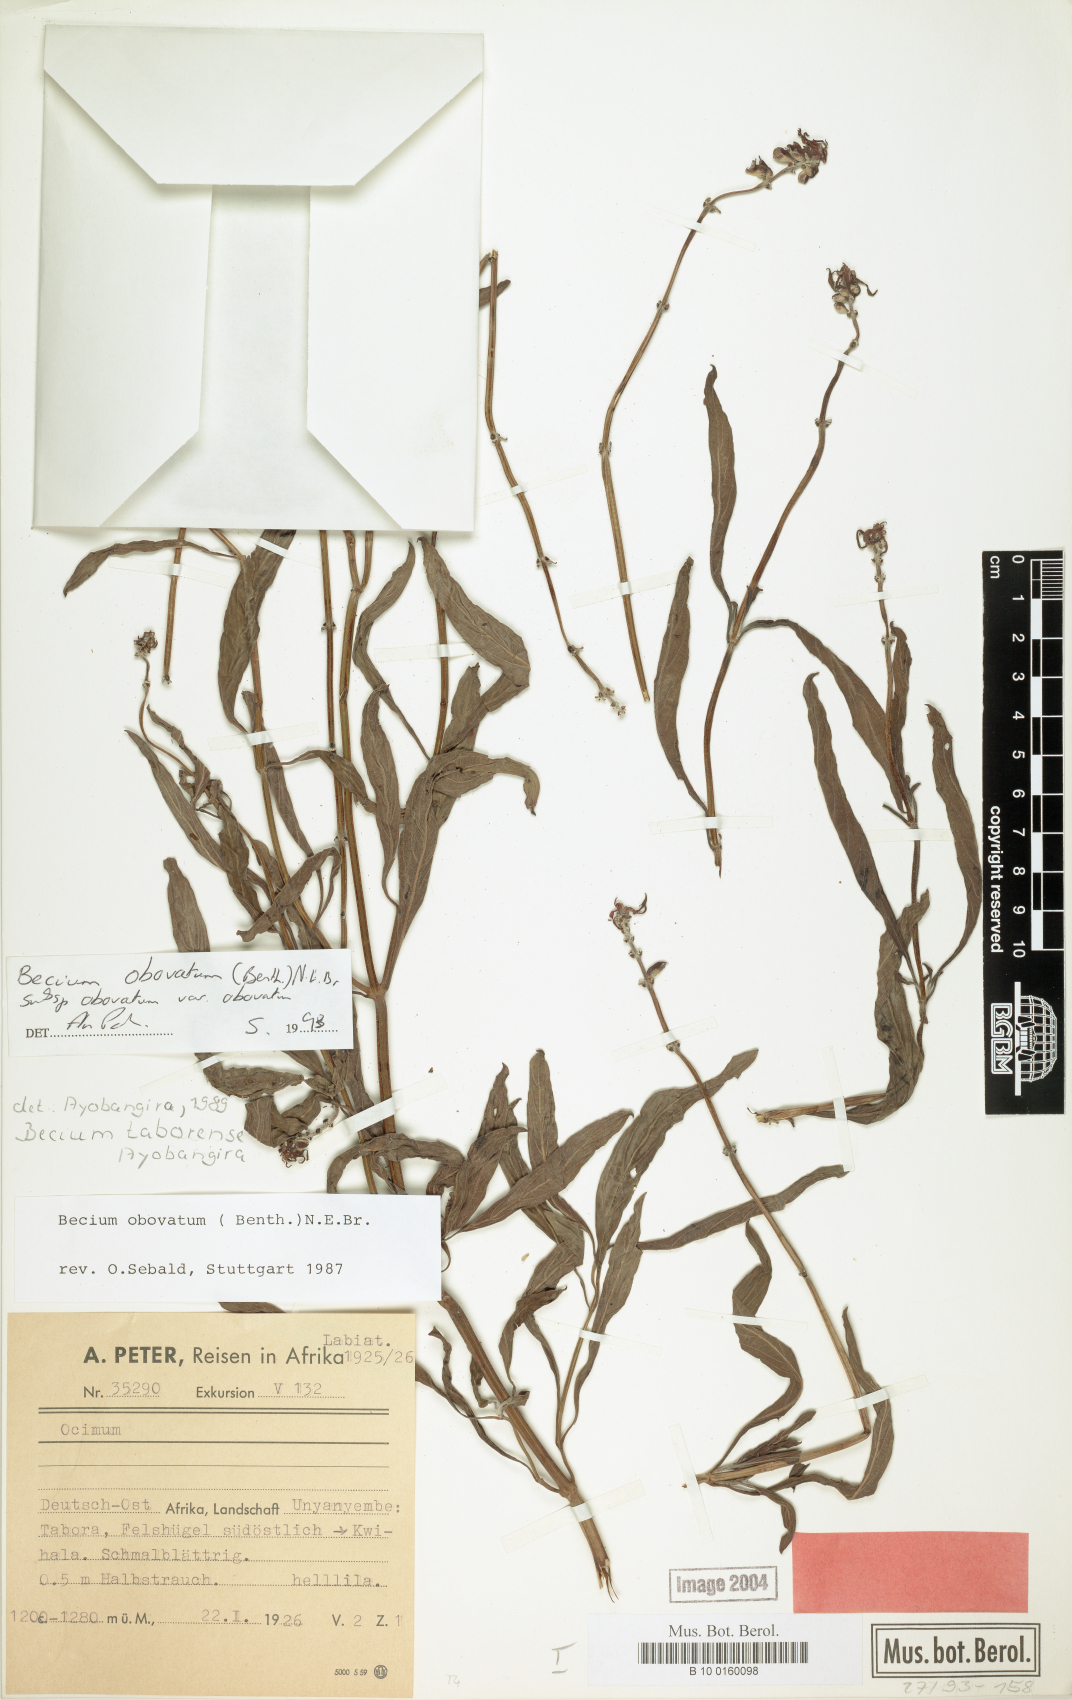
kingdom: Plantae
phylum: Tracheophyta
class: Magnoliopsida
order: Lamiales
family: Lamiaceae
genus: Ocimum
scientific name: Ocimum obovatum
